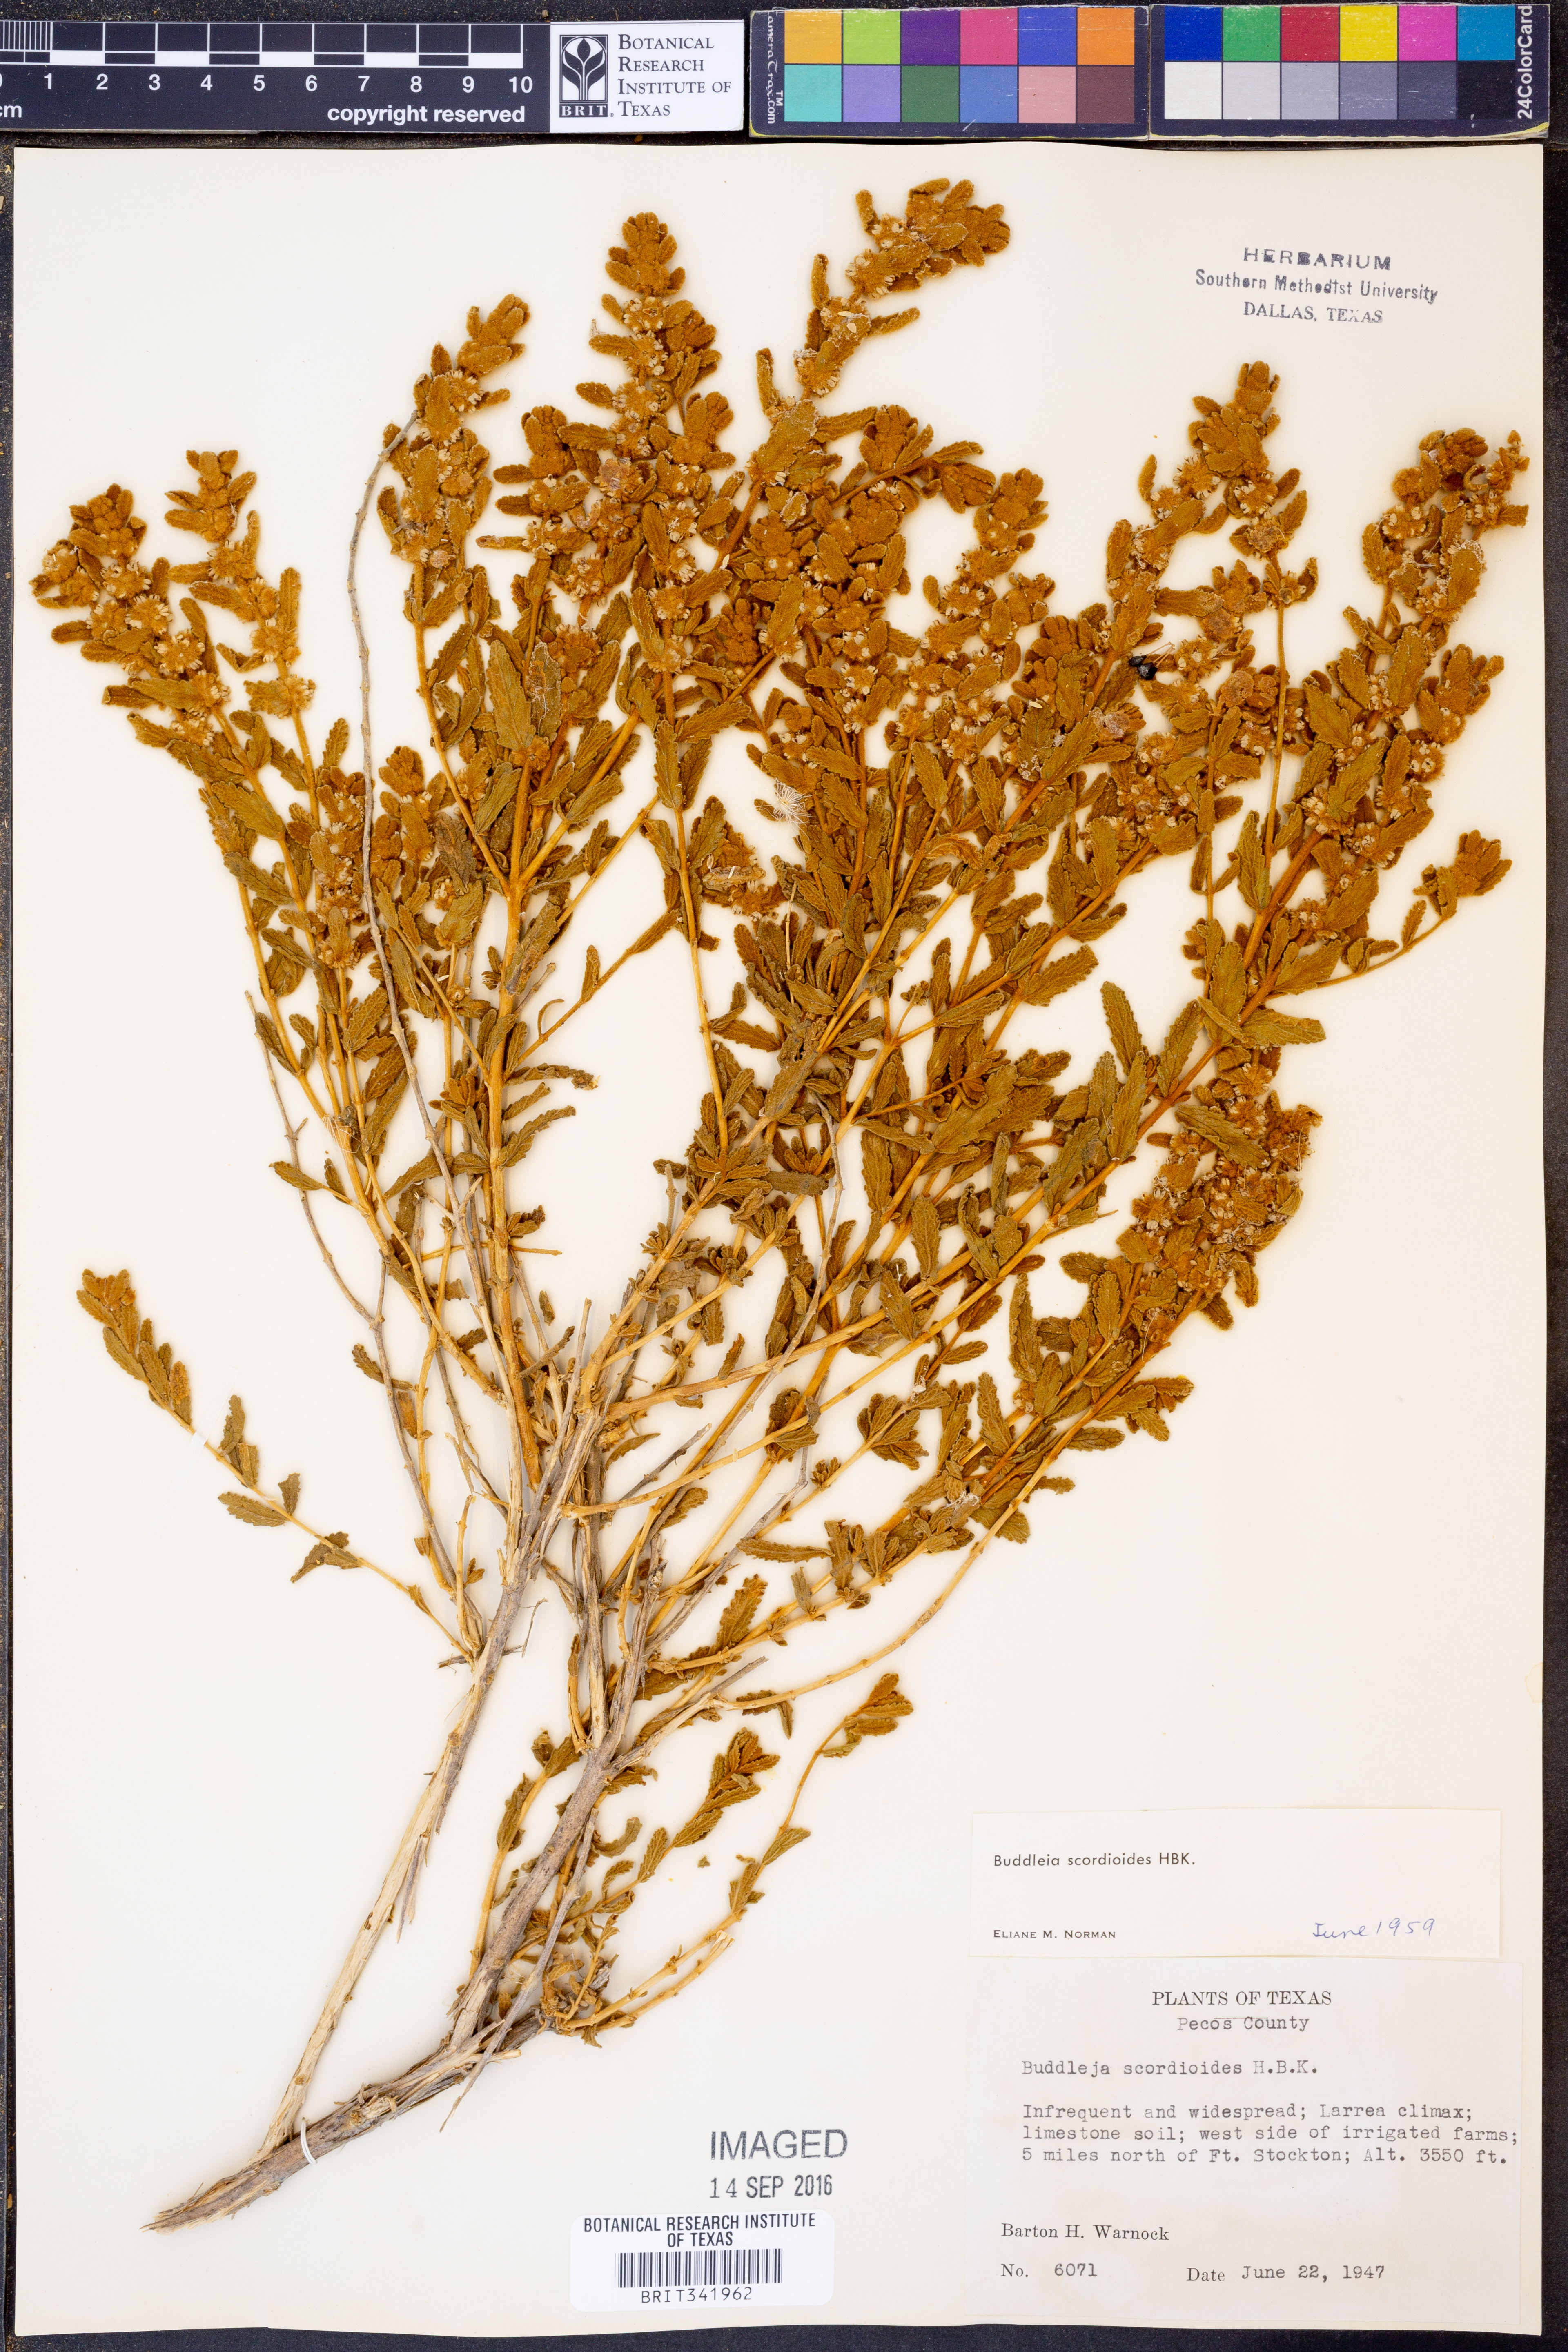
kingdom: Plantae
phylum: Tracheophyta
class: Magnoliopsida
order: Lamiales
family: Scrophulariaceae
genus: Buddleja
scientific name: Buddleja scordioides
